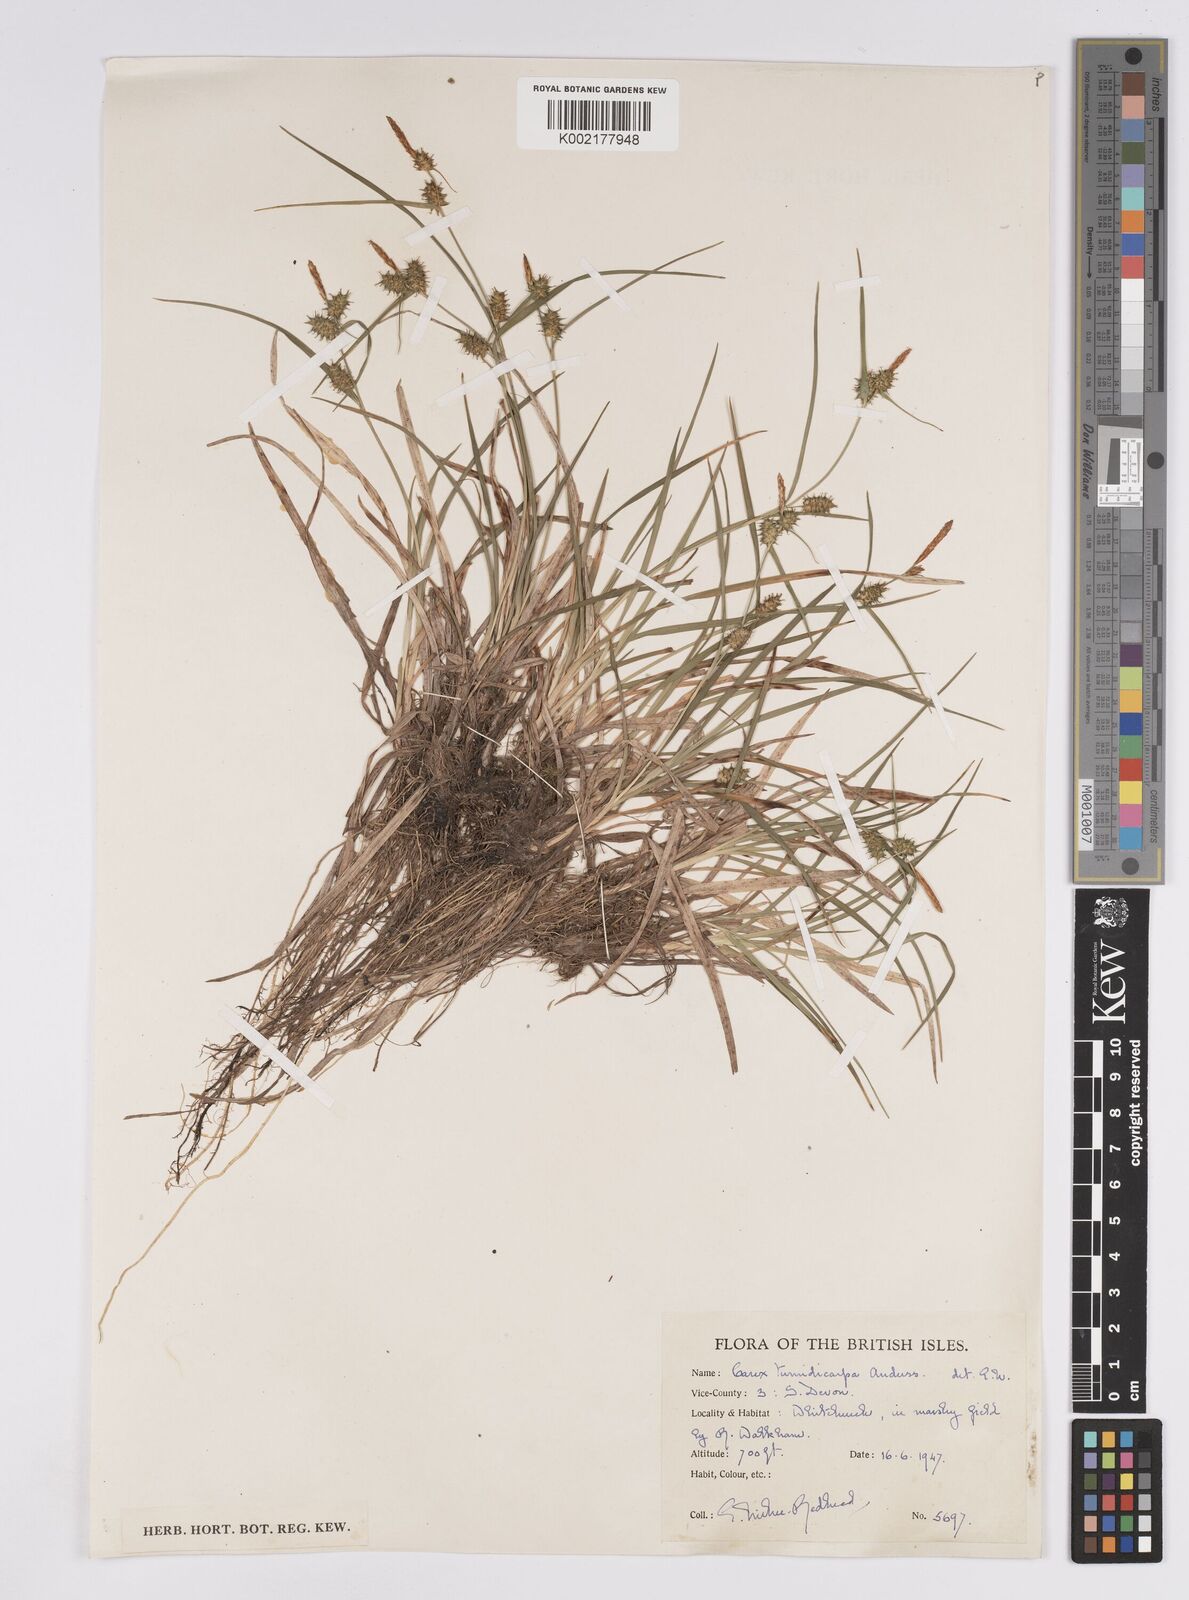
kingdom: Plantae
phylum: Tracheophyta
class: Liliopsida
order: Poales
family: Cyperaceae
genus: Carex
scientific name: Carex demissa
